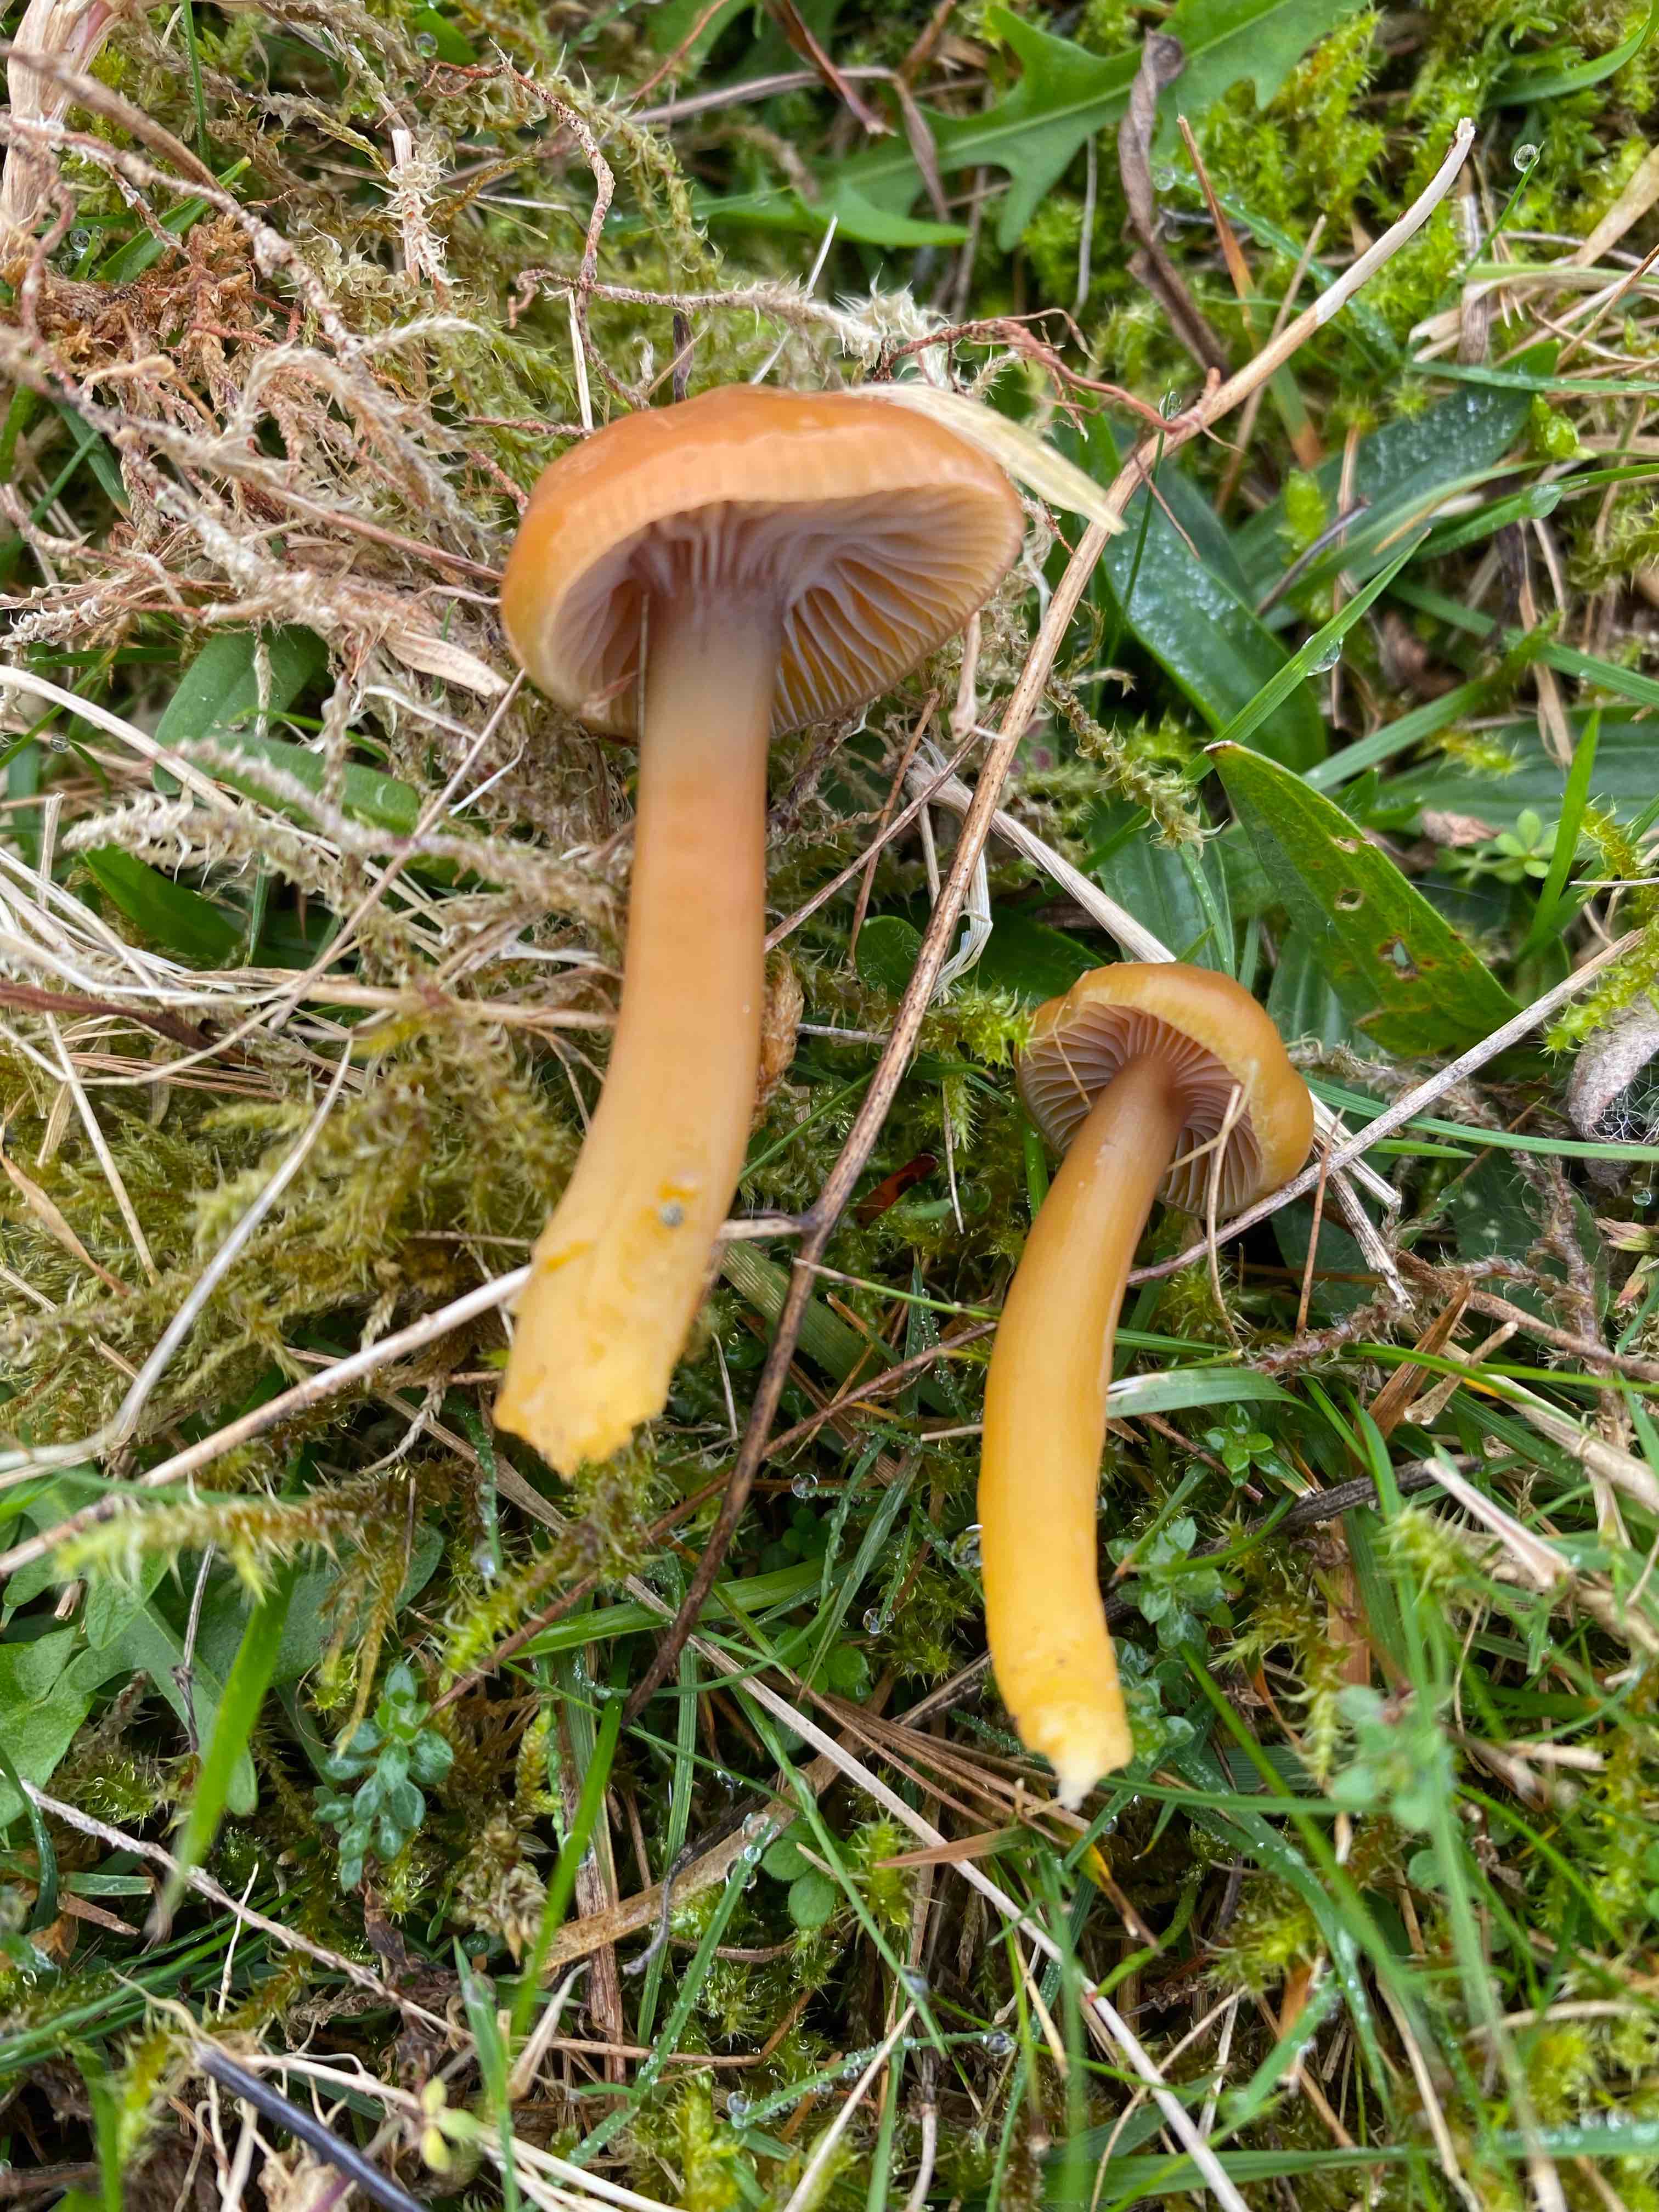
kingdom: Fungi
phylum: Basidiomycota
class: Agaricomycetes
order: Agaricales
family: Hygrophoraceae
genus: Gliophorus
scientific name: Gliophorus laetus
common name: brusk-vokshat
